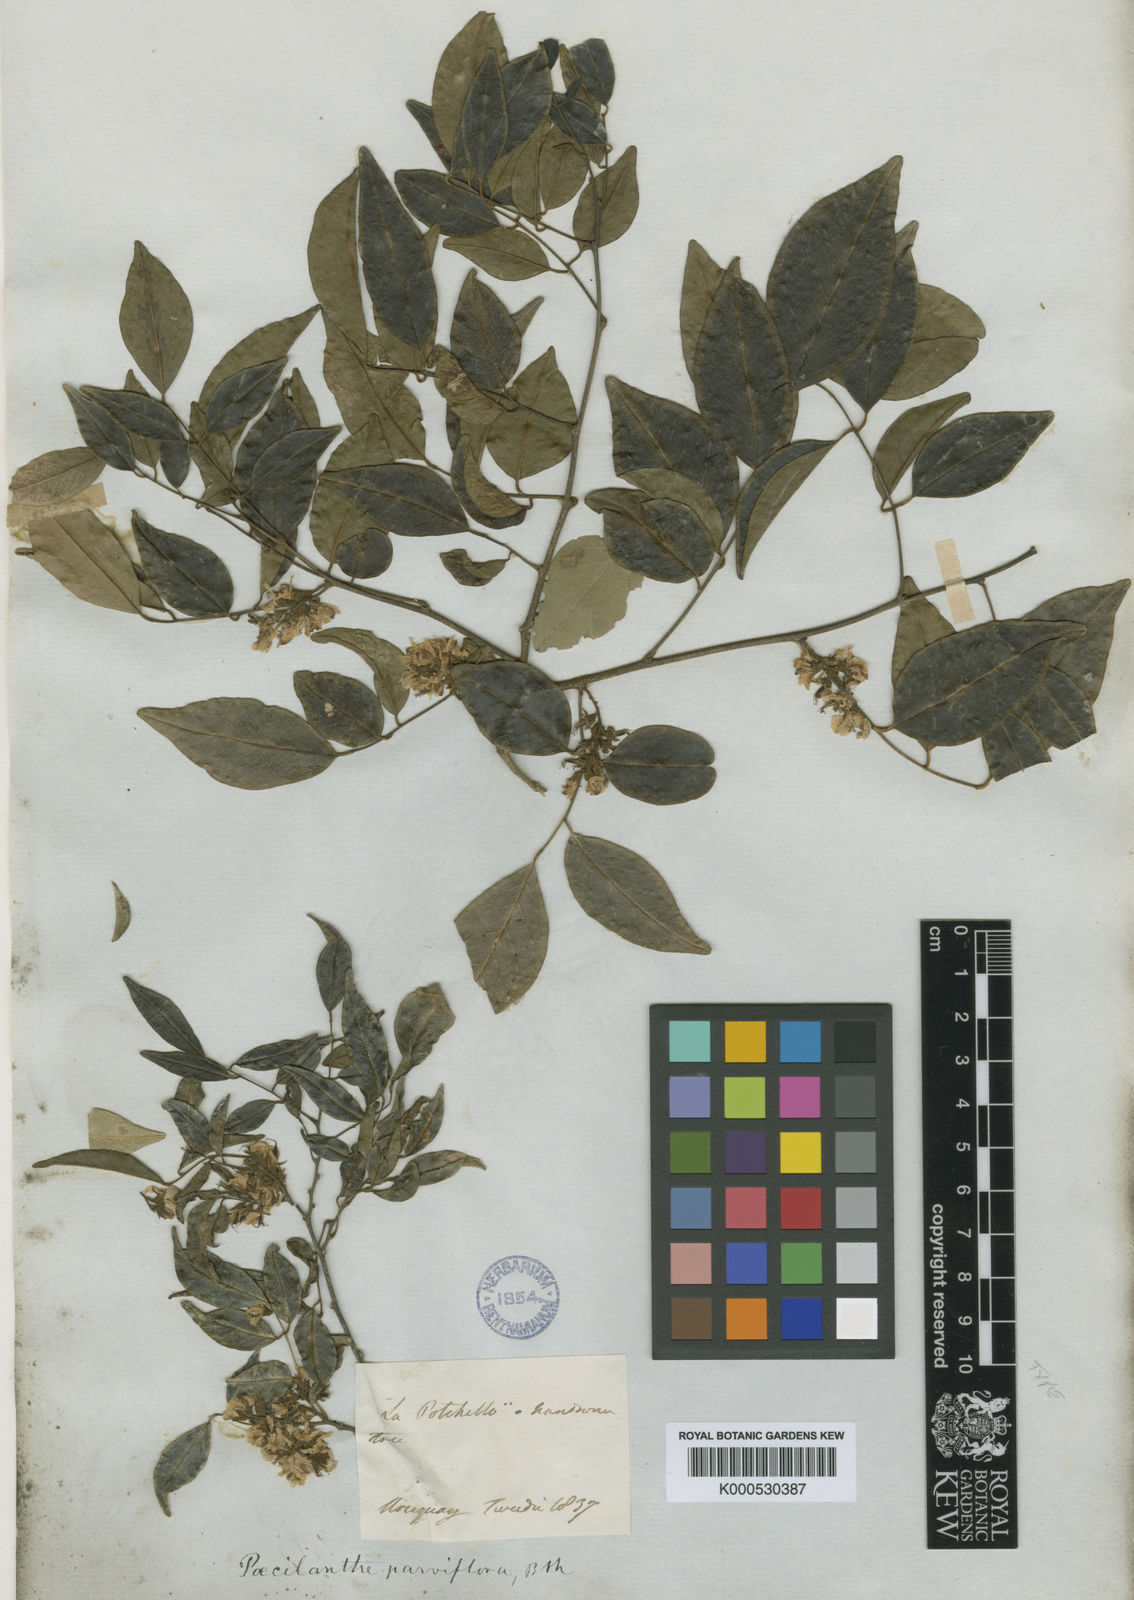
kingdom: Plantae
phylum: Tracheophyta
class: Magnoliopsida
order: Fabales
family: Fabaceae
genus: Poecilanthe
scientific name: Poecilanthe parviflora
